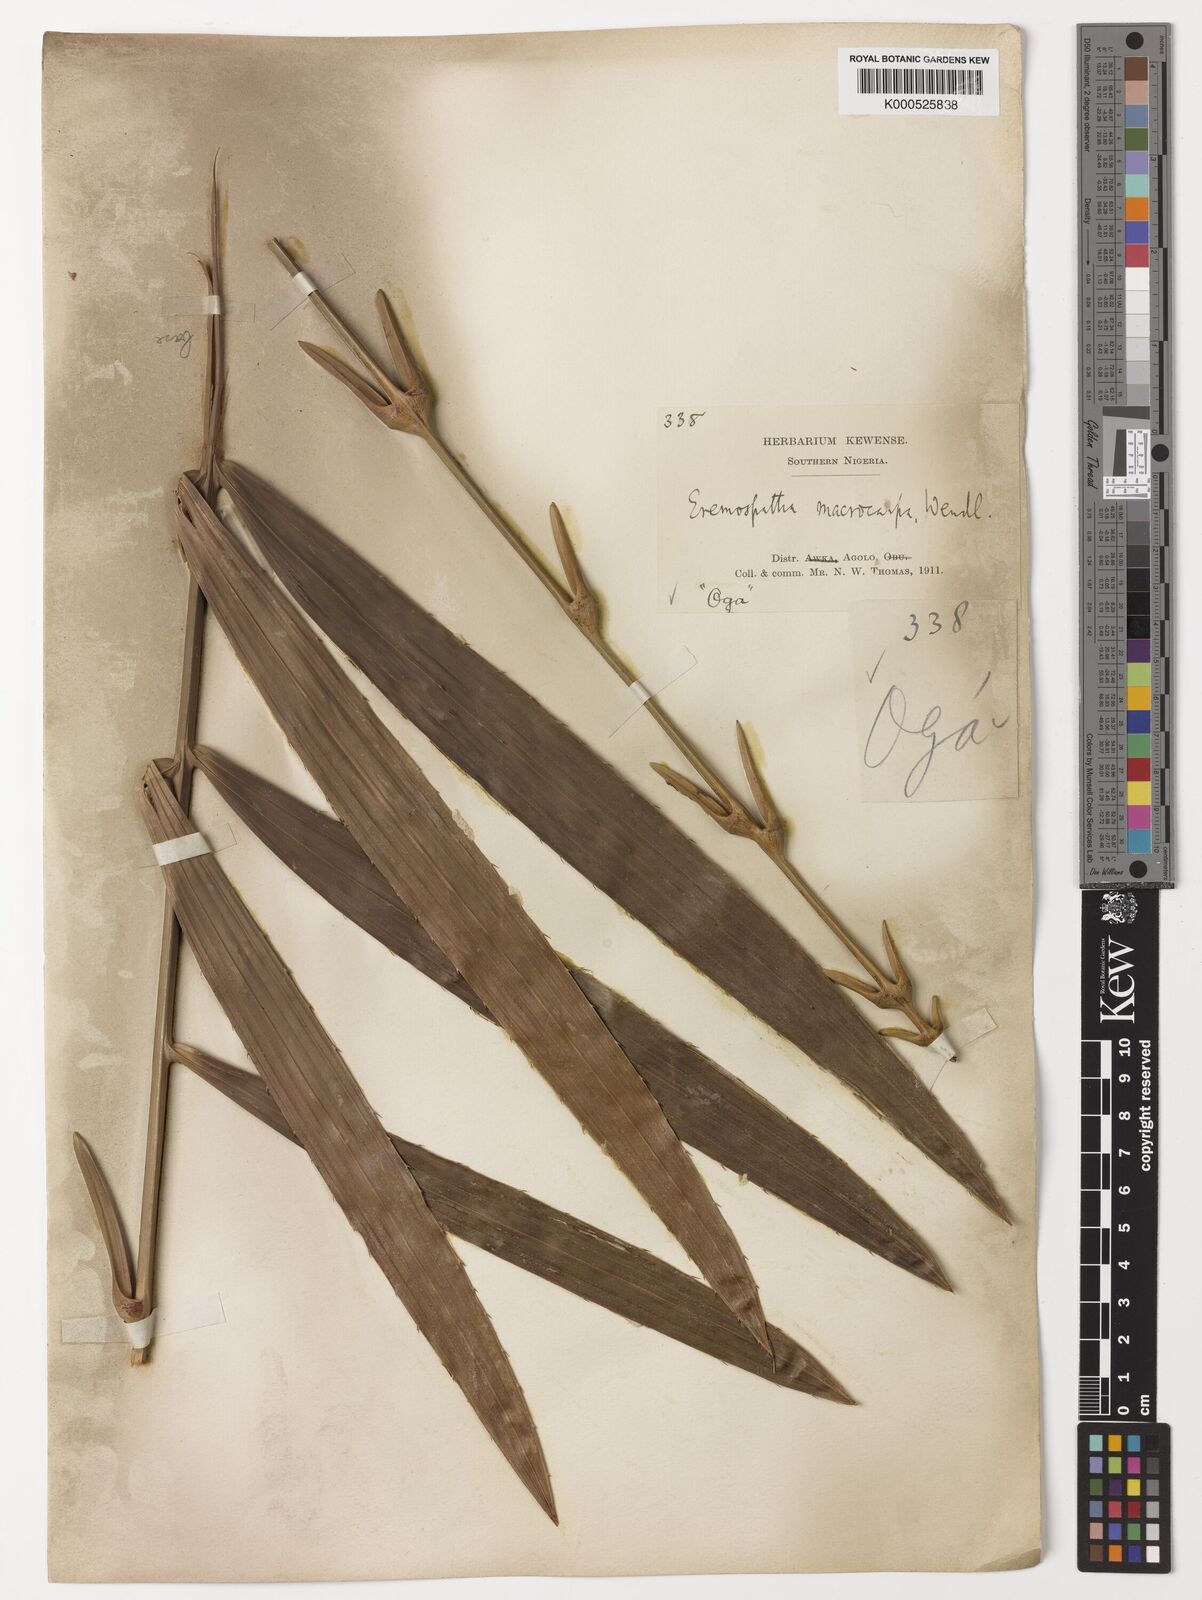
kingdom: Plantae
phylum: Tracheophyta
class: Liliopsida
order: Arecales
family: Arecaceae
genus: Eremospatha
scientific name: Eremospatha
